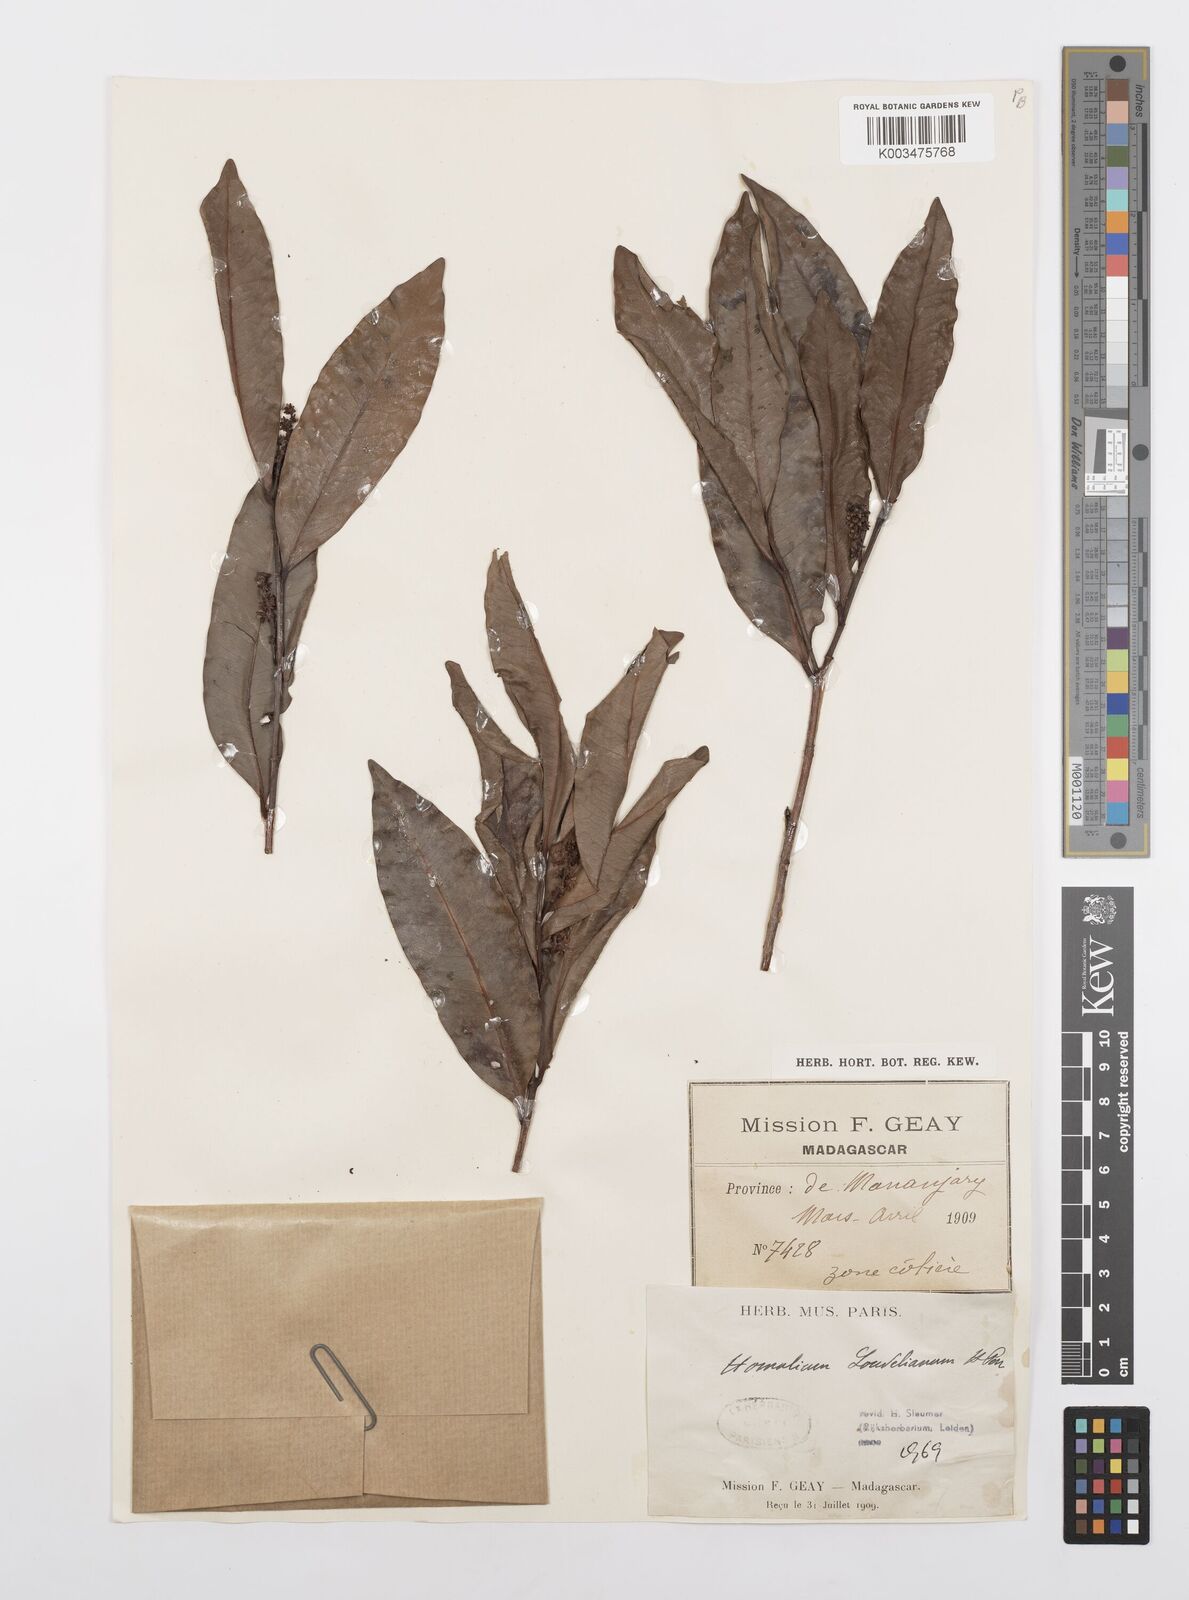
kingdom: Plantae
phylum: Tracheophyta
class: Magnoliopsida
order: Malpighiales
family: Salicaceae
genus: Homalium
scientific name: Homalium louvelianum
